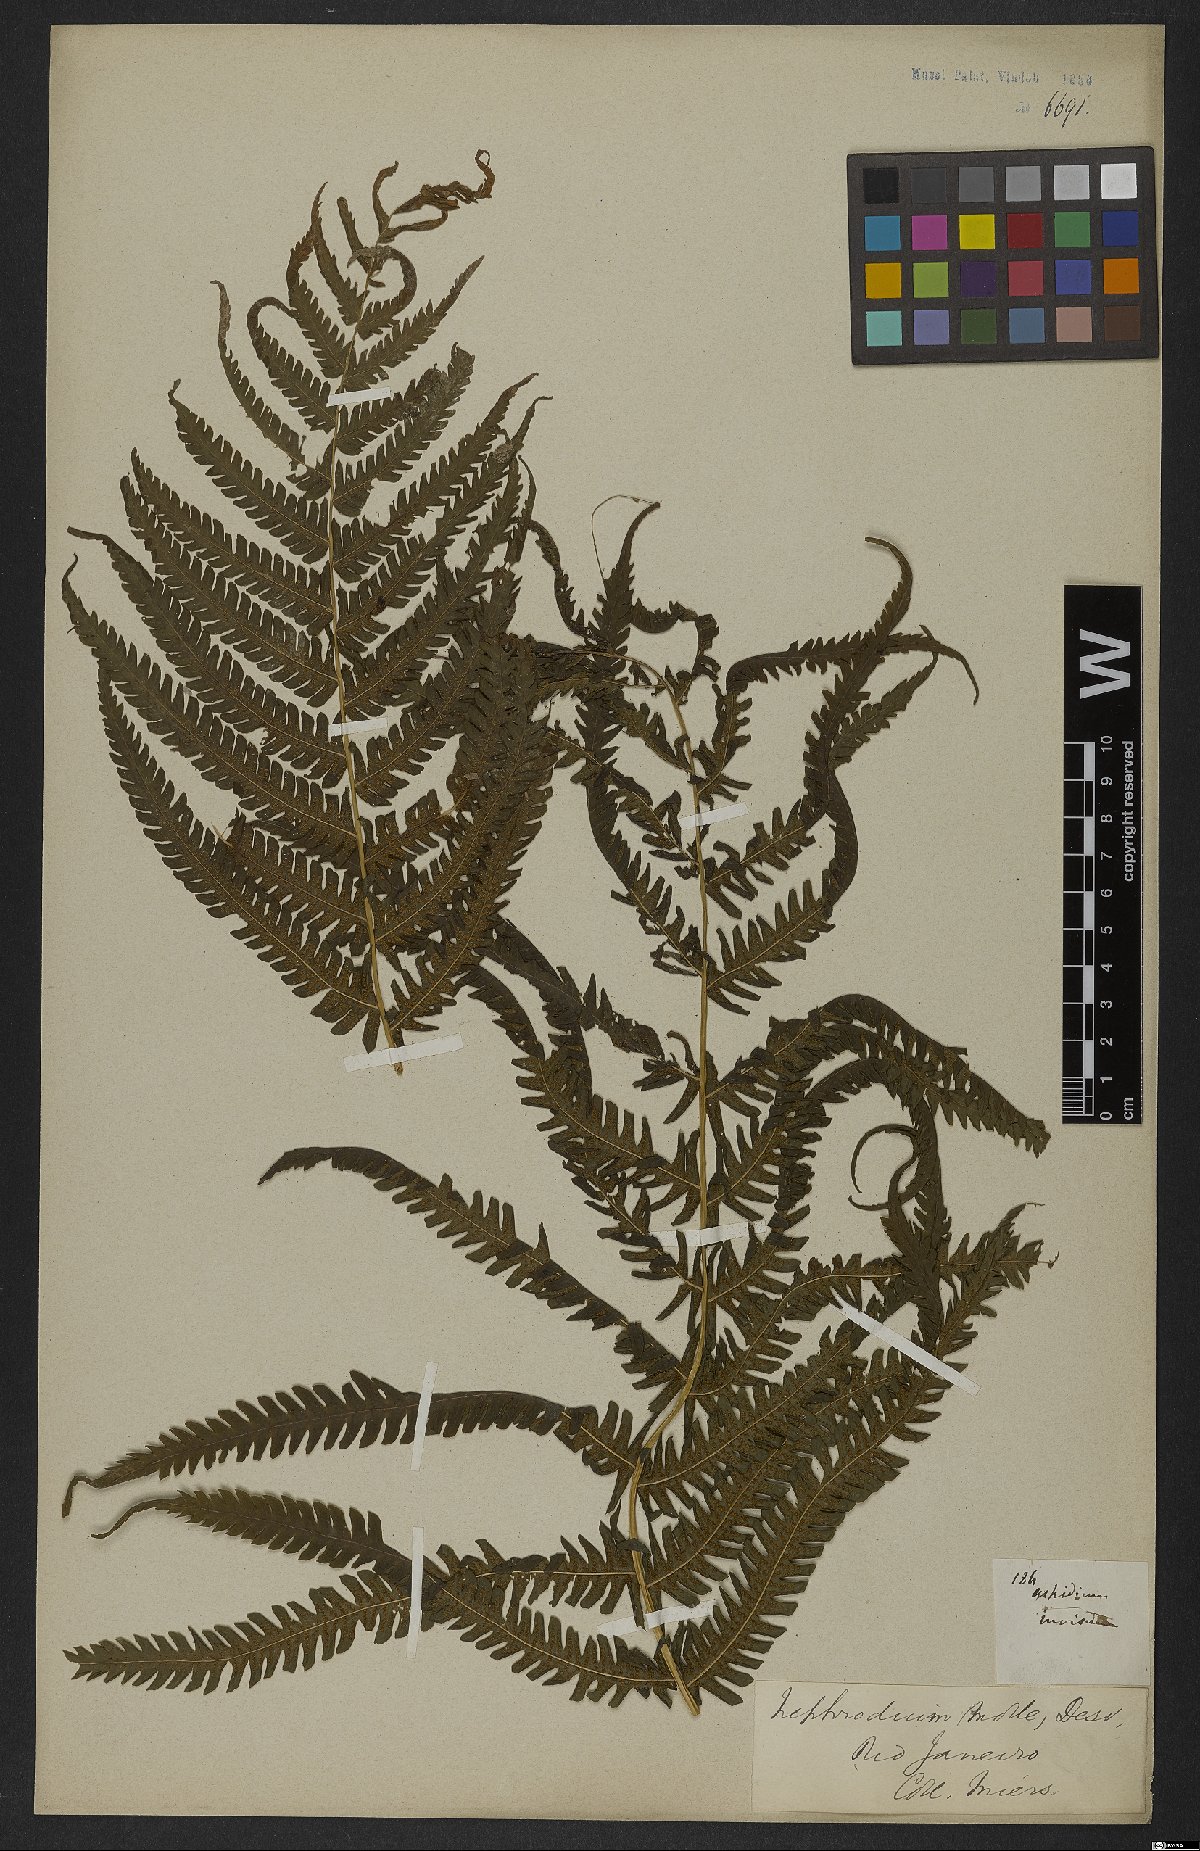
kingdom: Plantae
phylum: Tracheophyta
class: Polypodiopsida
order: Polypodiales
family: Thelypteridaceae
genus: Pelazoneuron
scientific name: Pelazoneuron patens
